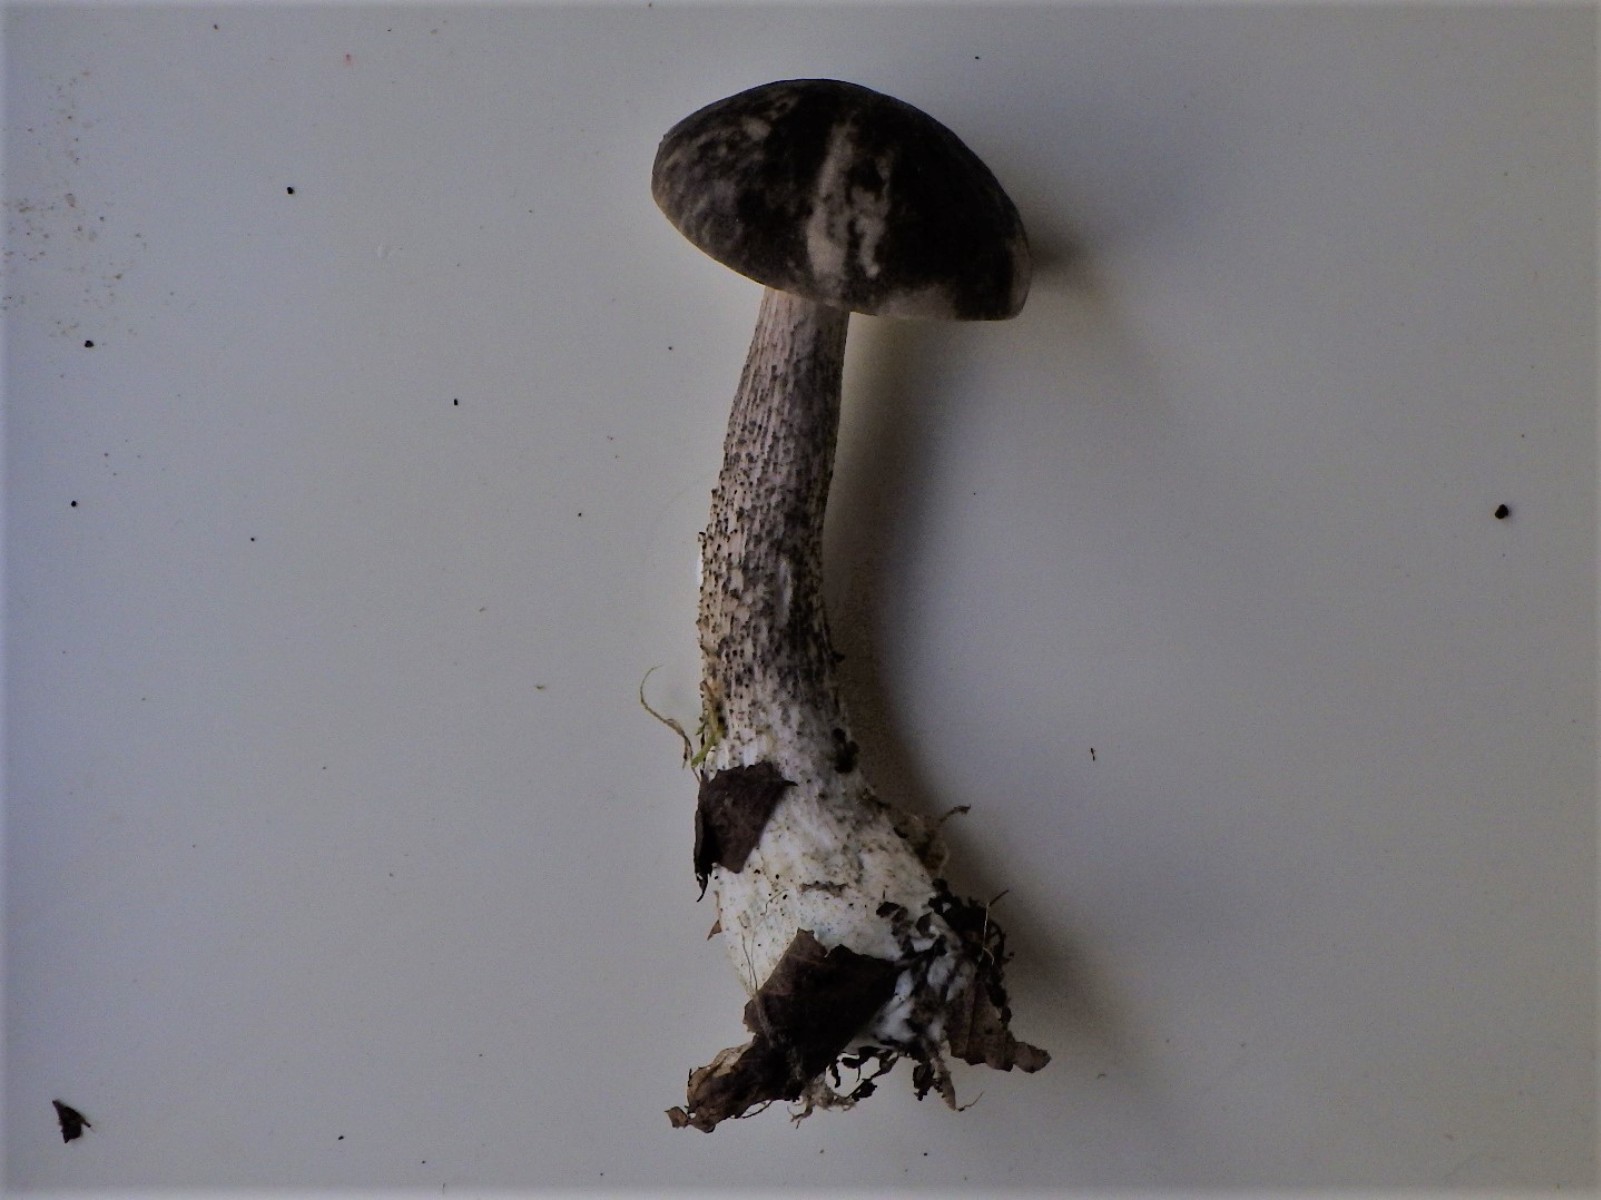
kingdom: Fungi
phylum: Basidiomycota
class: Agaricomycetes
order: Boletales
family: Boletaceae
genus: Leccinum
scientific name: Leccinum variicolor
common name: flammet skælrørhat
